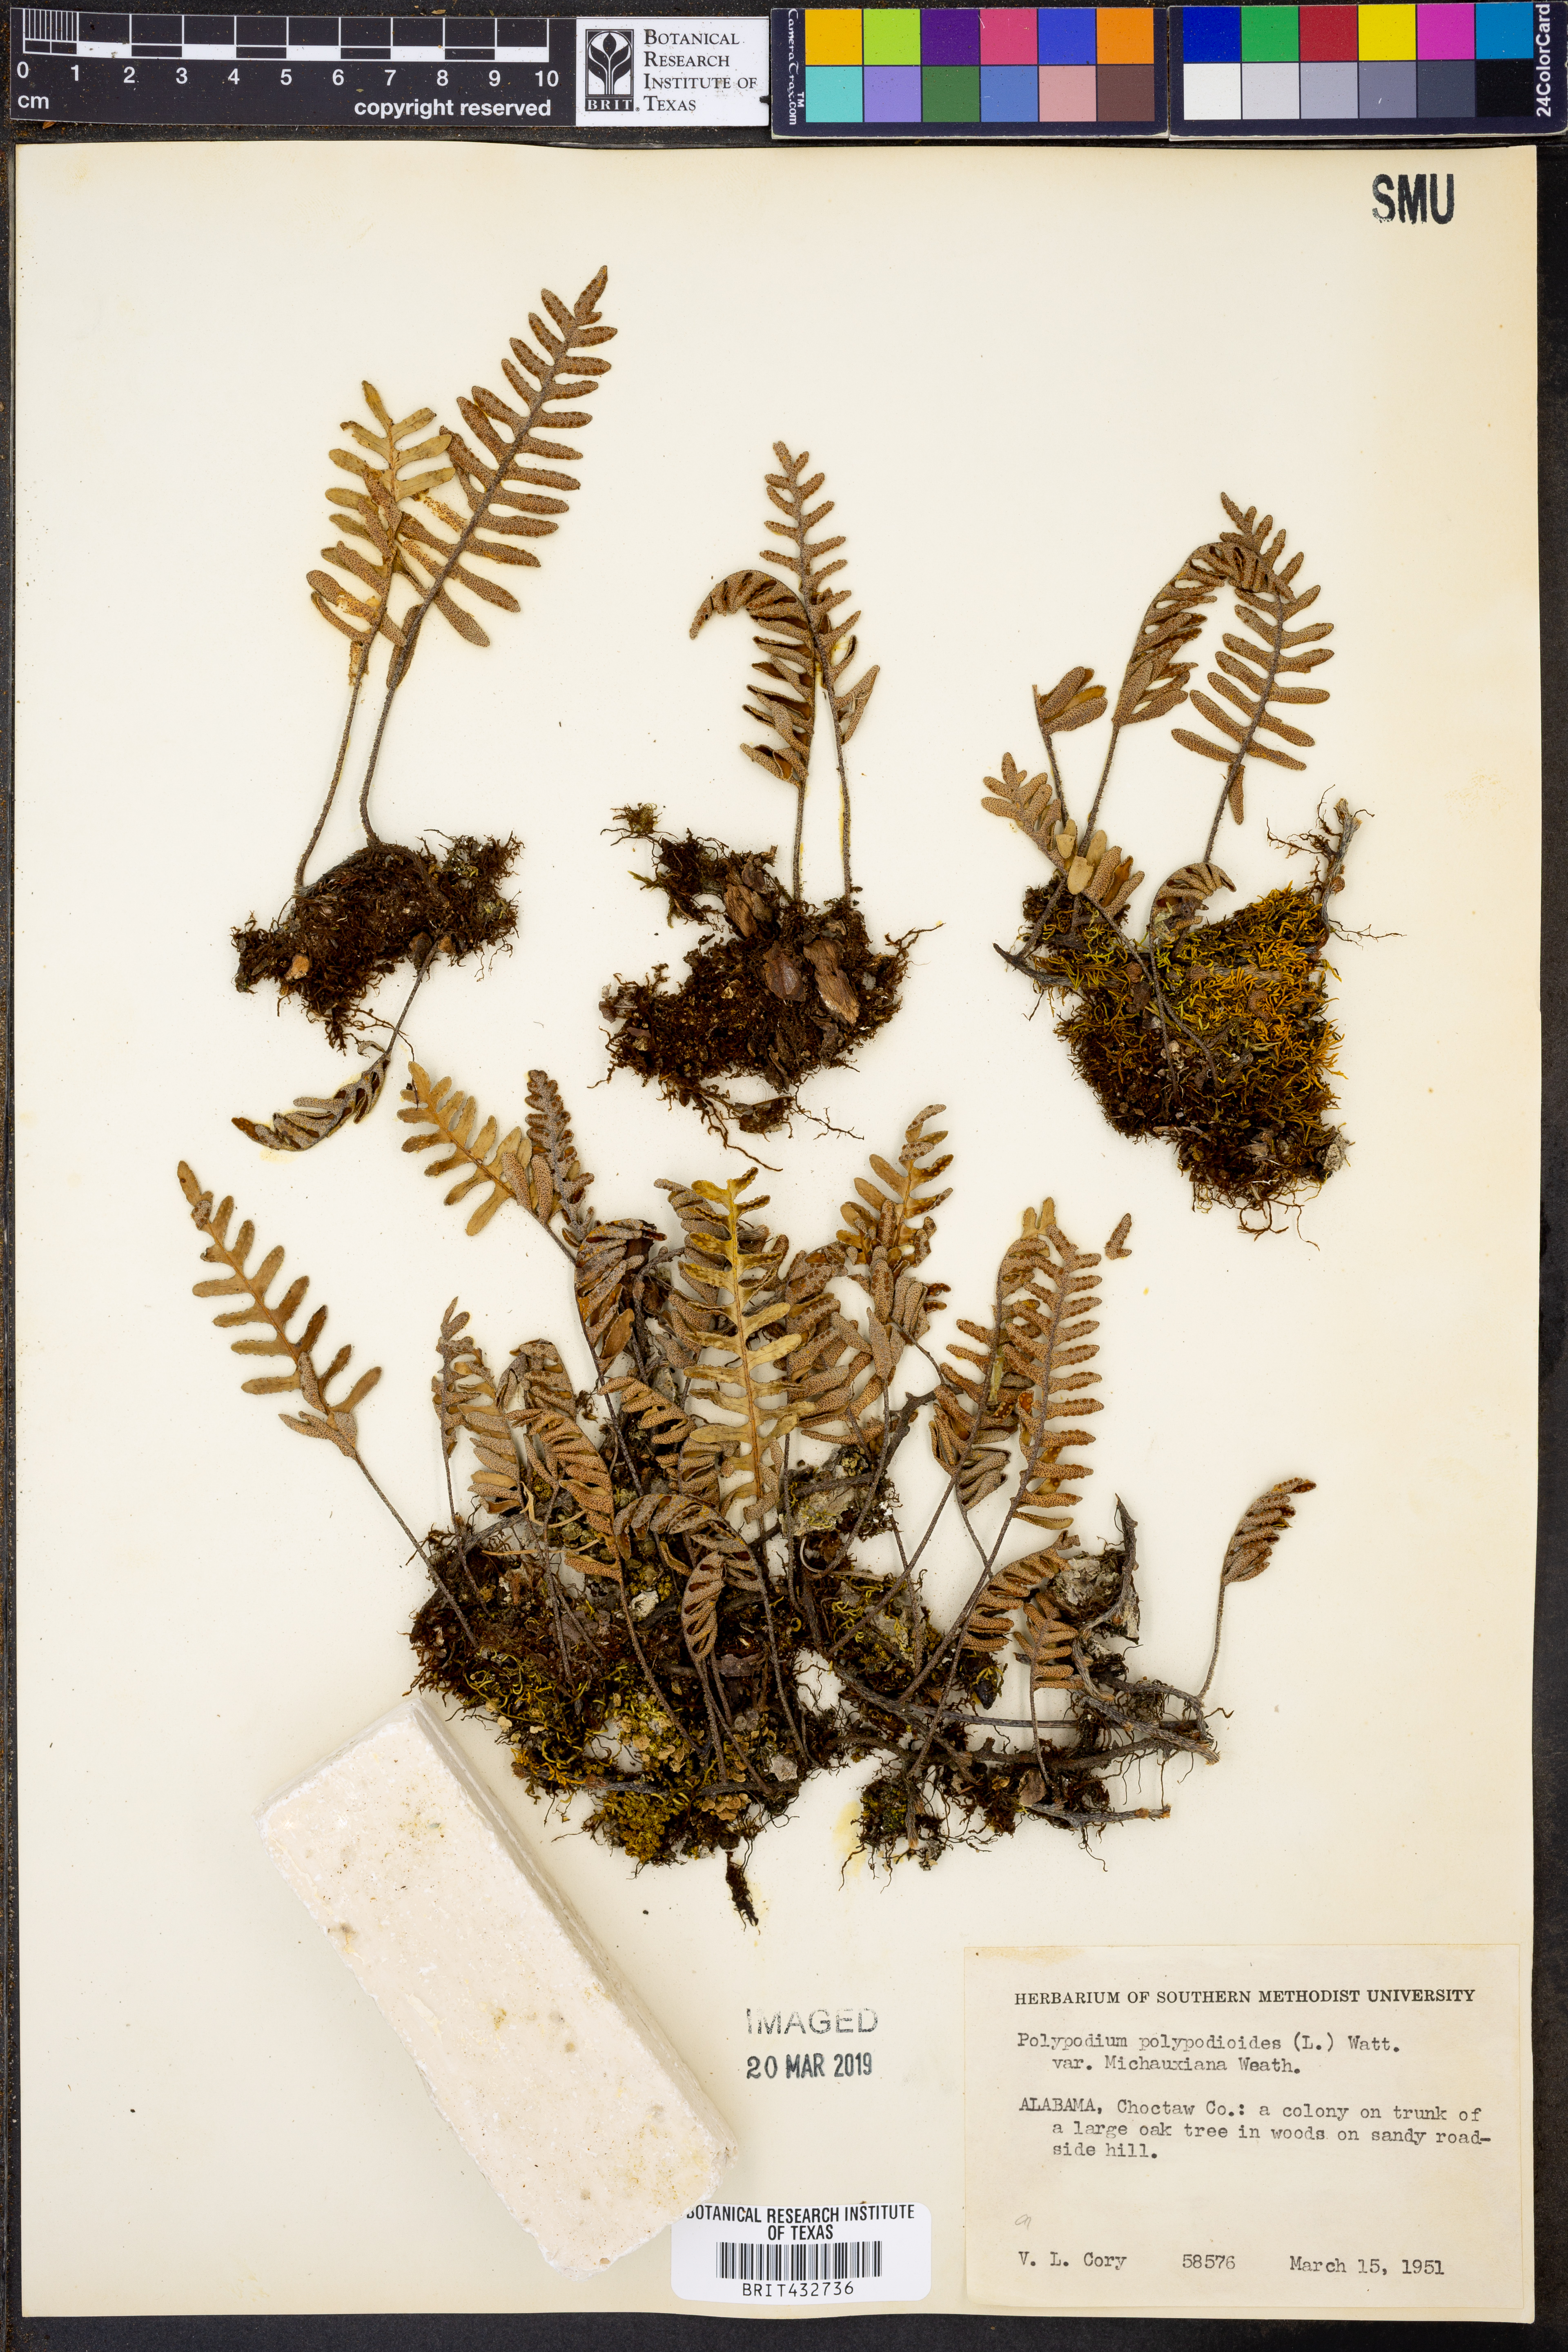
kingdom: Plantae
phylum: Tracheophyta
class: Polypodiopsida
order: Polypodiales
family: Polypodiaceae
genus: Pleopeltis
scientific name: Pleopeltis michauxiana
